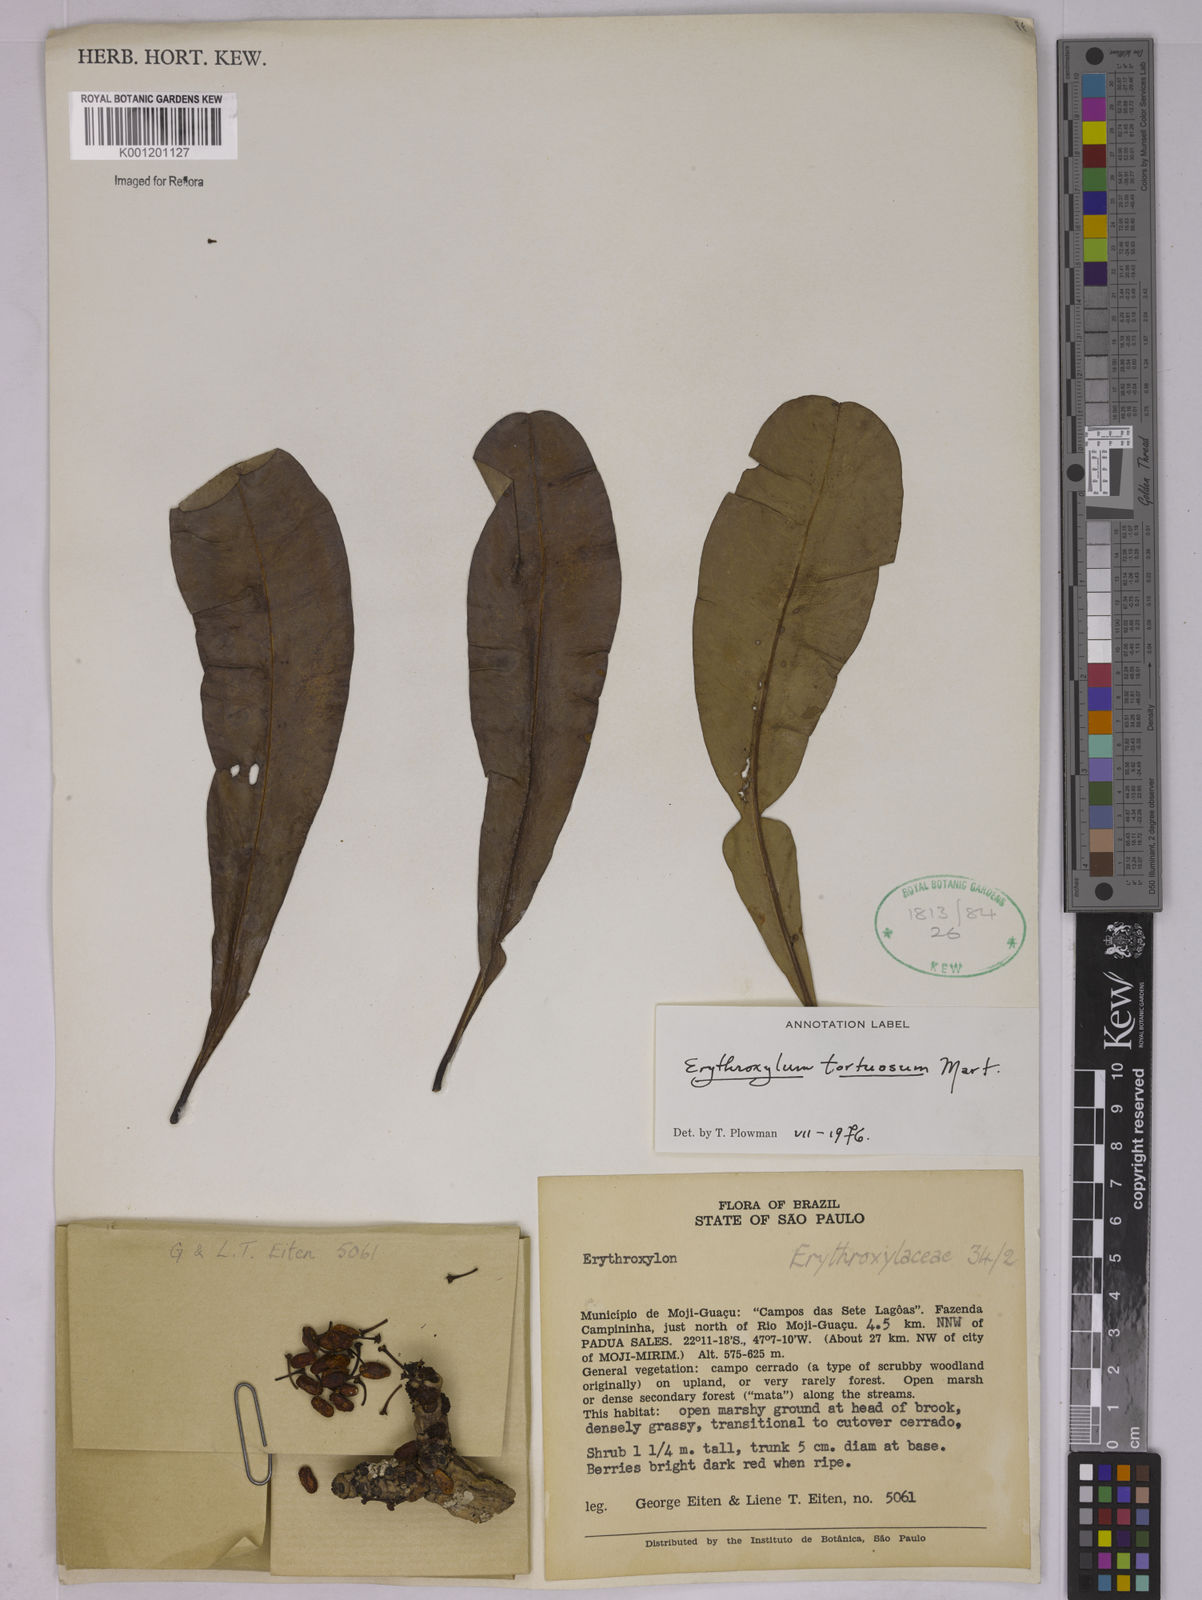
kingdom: Plantae
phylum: Tracheophyta
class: Magnoliopsida
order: Malpighiales
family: Erythroxylaceae
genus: Erythroxylum
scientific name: Erythroxylum tortuosum
